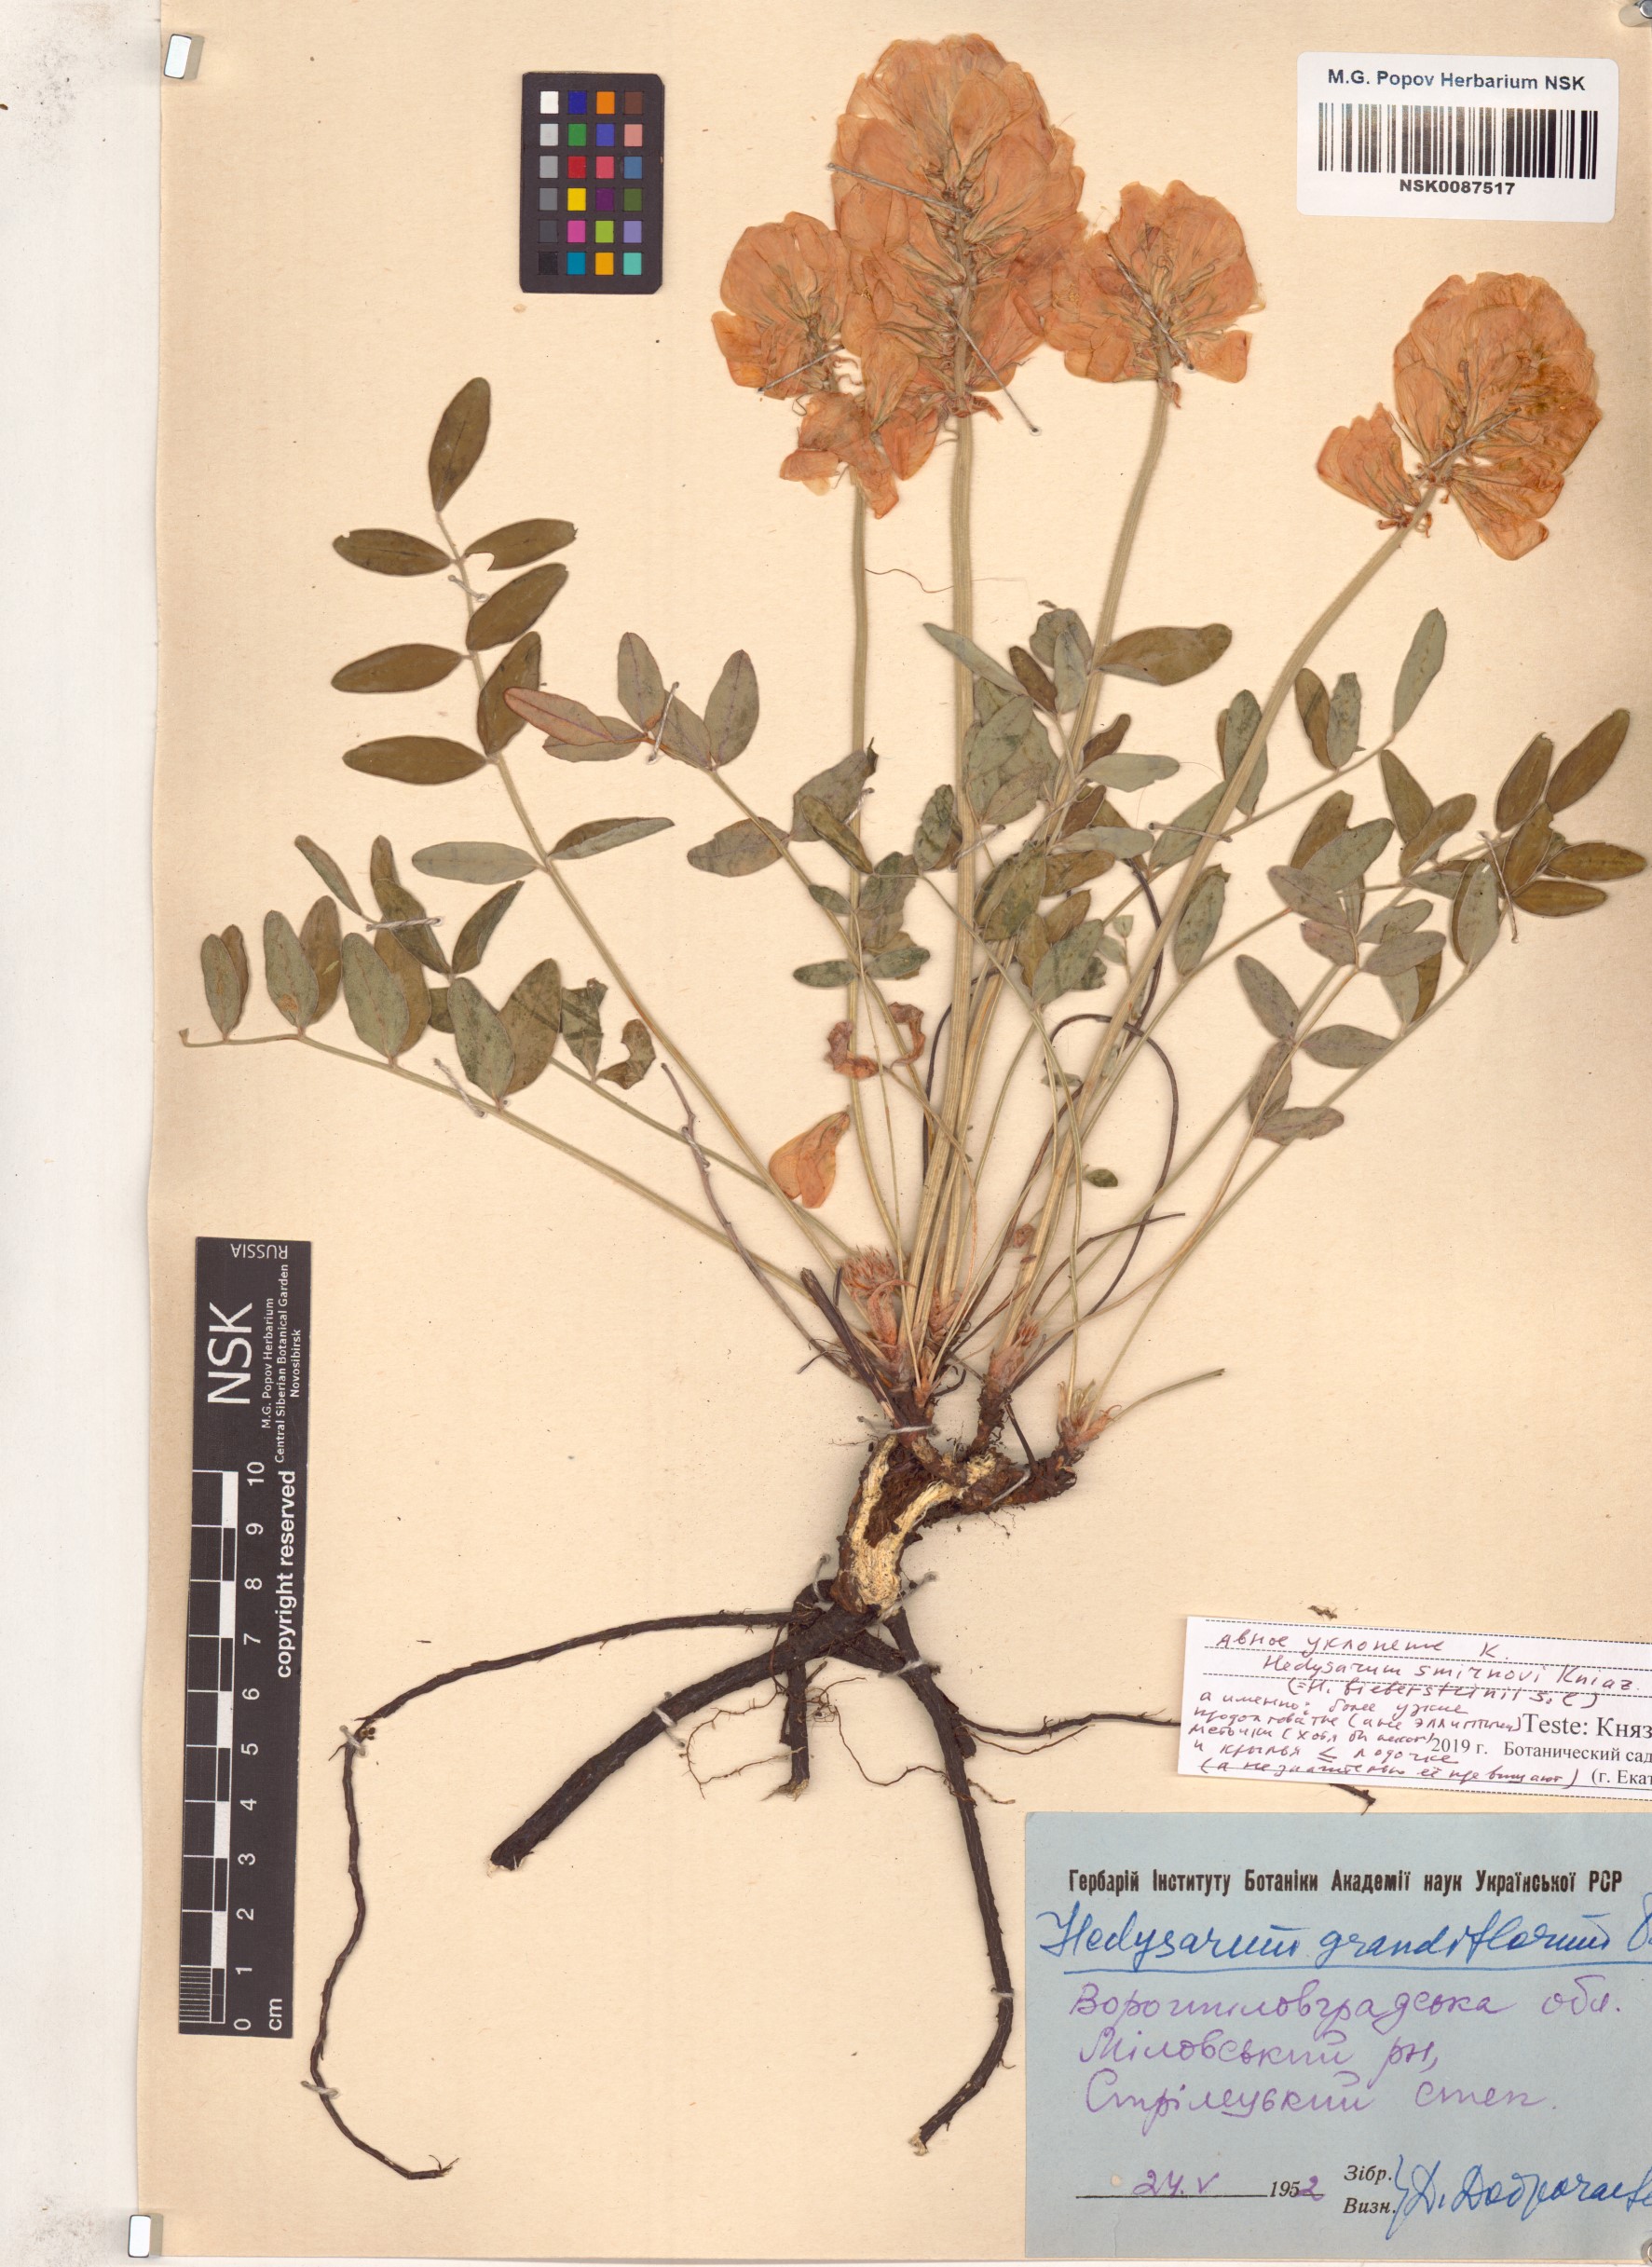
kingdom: Plantae
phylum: Tracheophyta
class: Magnoliopsida
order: Fabales
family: Fabaceae
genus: Hedysarum
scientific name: Hedysarum grandiflorum
